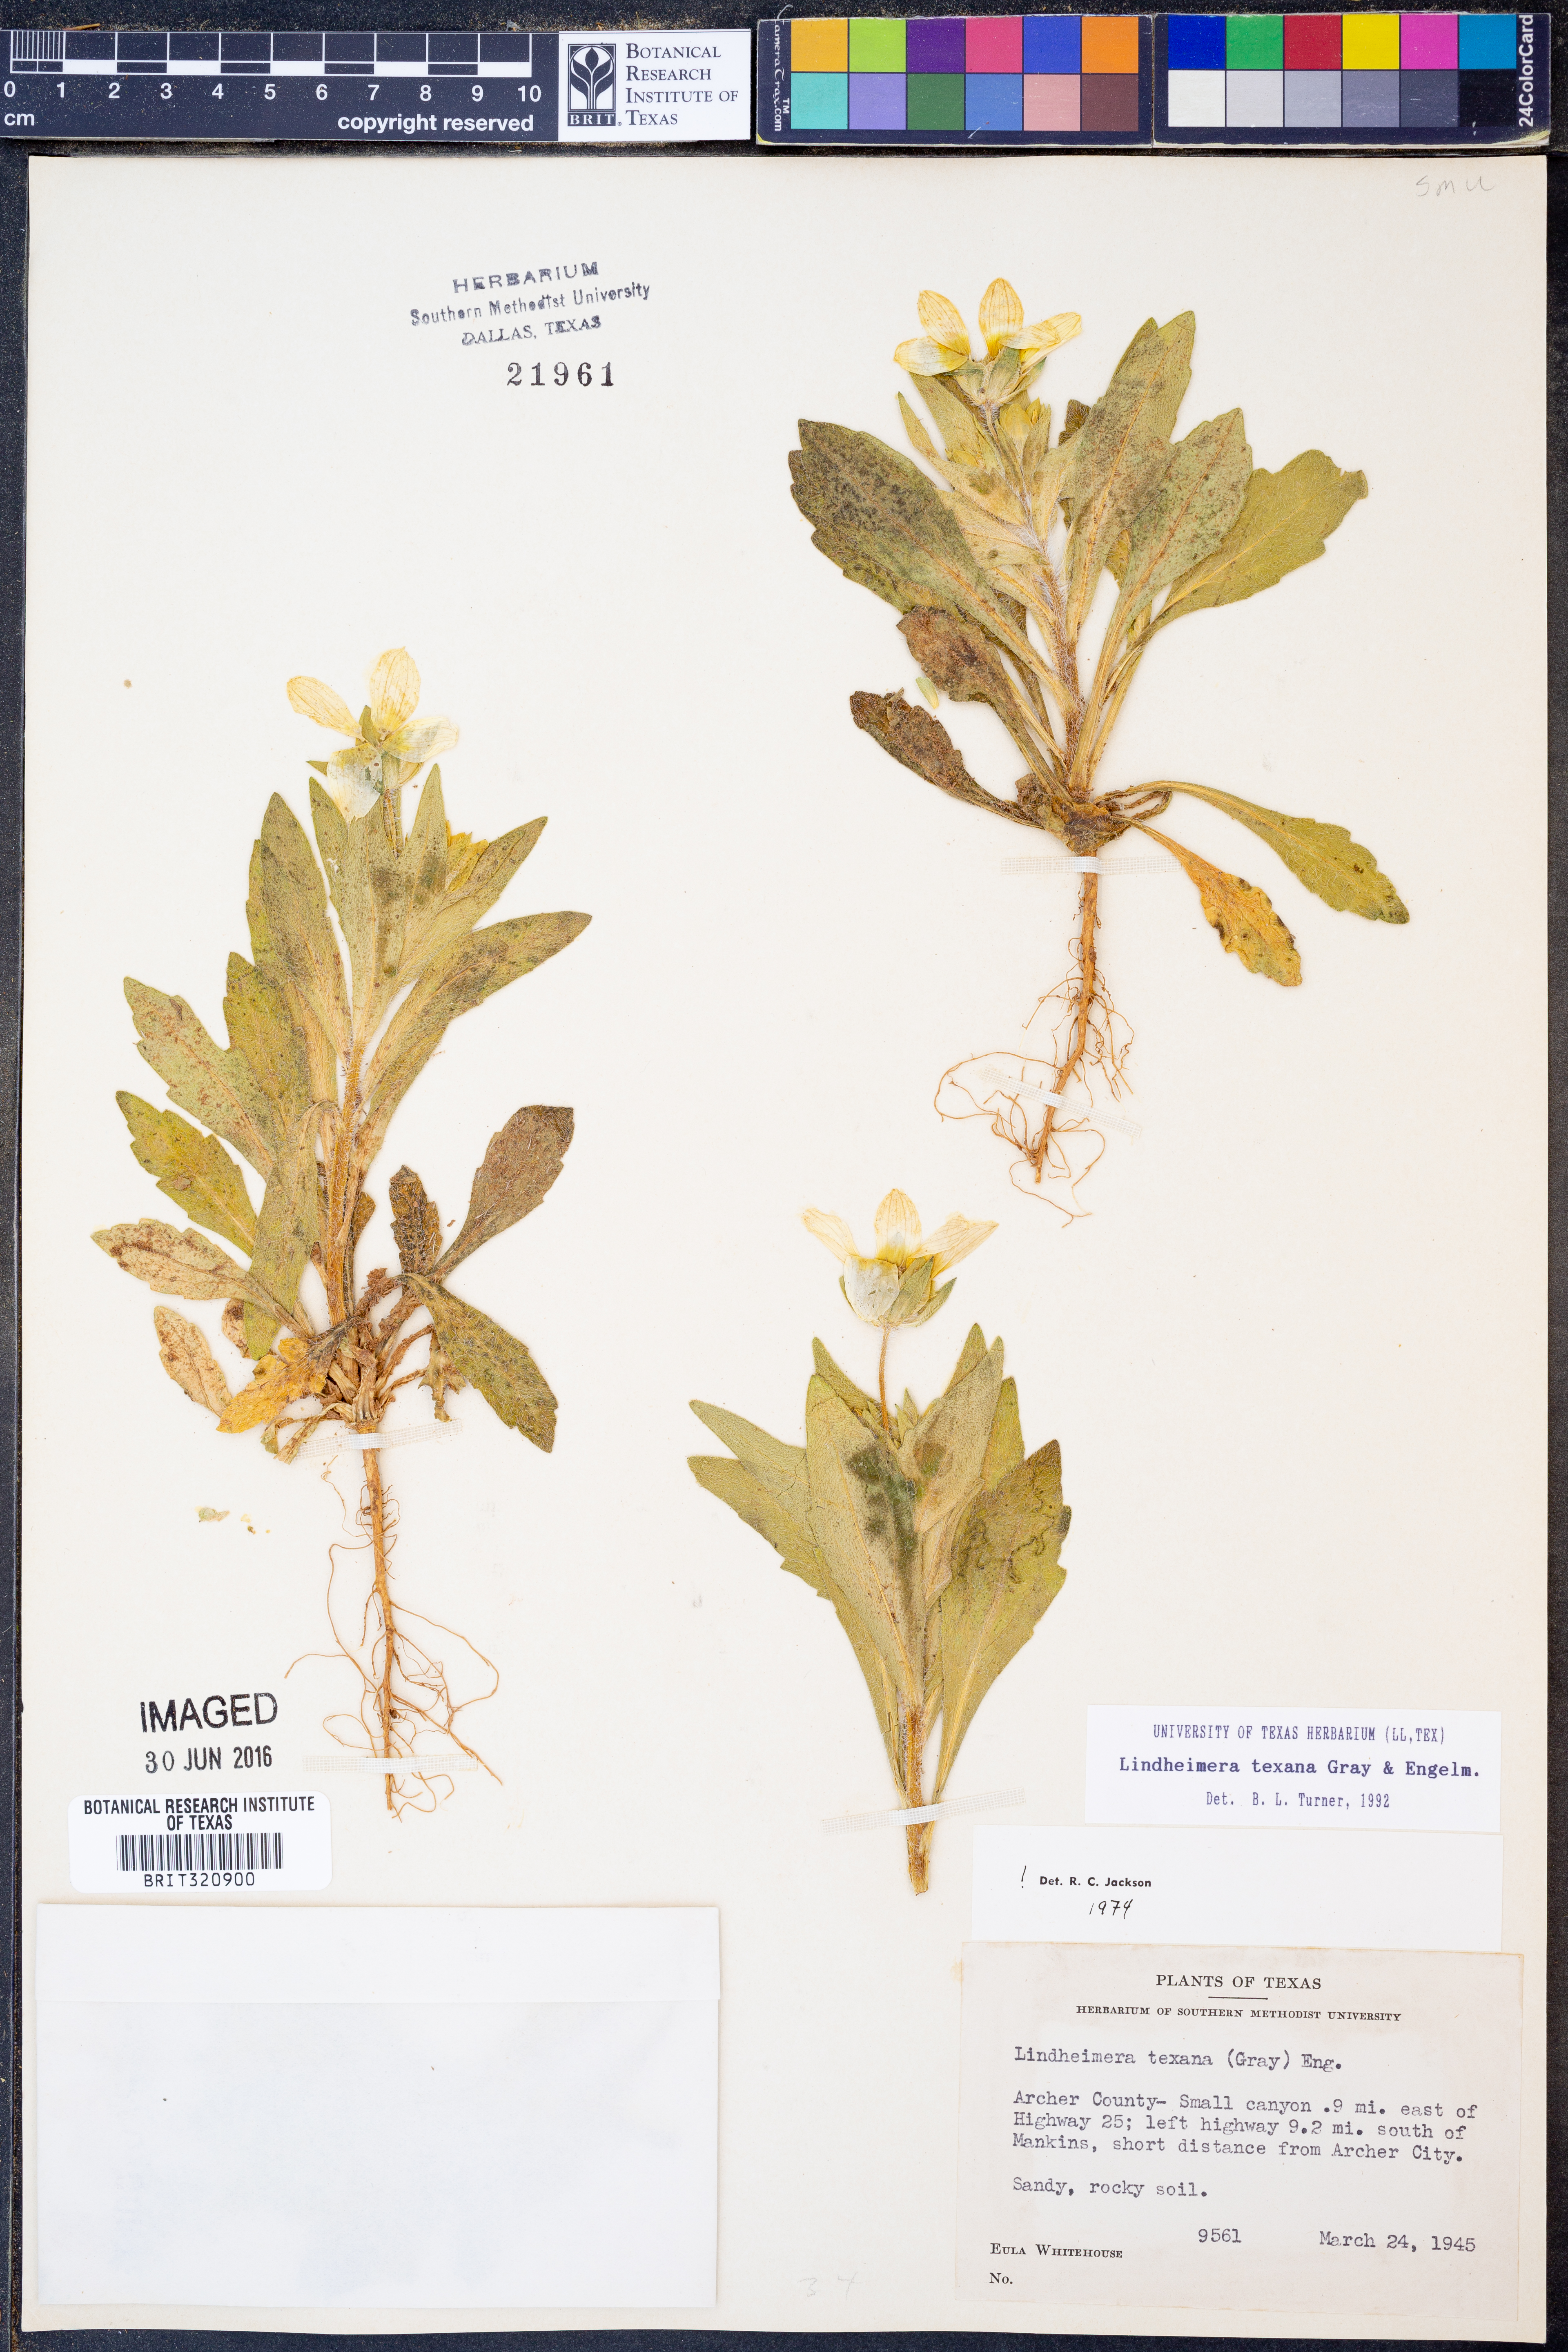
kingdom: Plantae
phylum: Tracheophyta
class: Magnoliopsida
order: Asterales
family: Asteraceae
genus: Lindheimera
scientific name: Lindheimera texana
